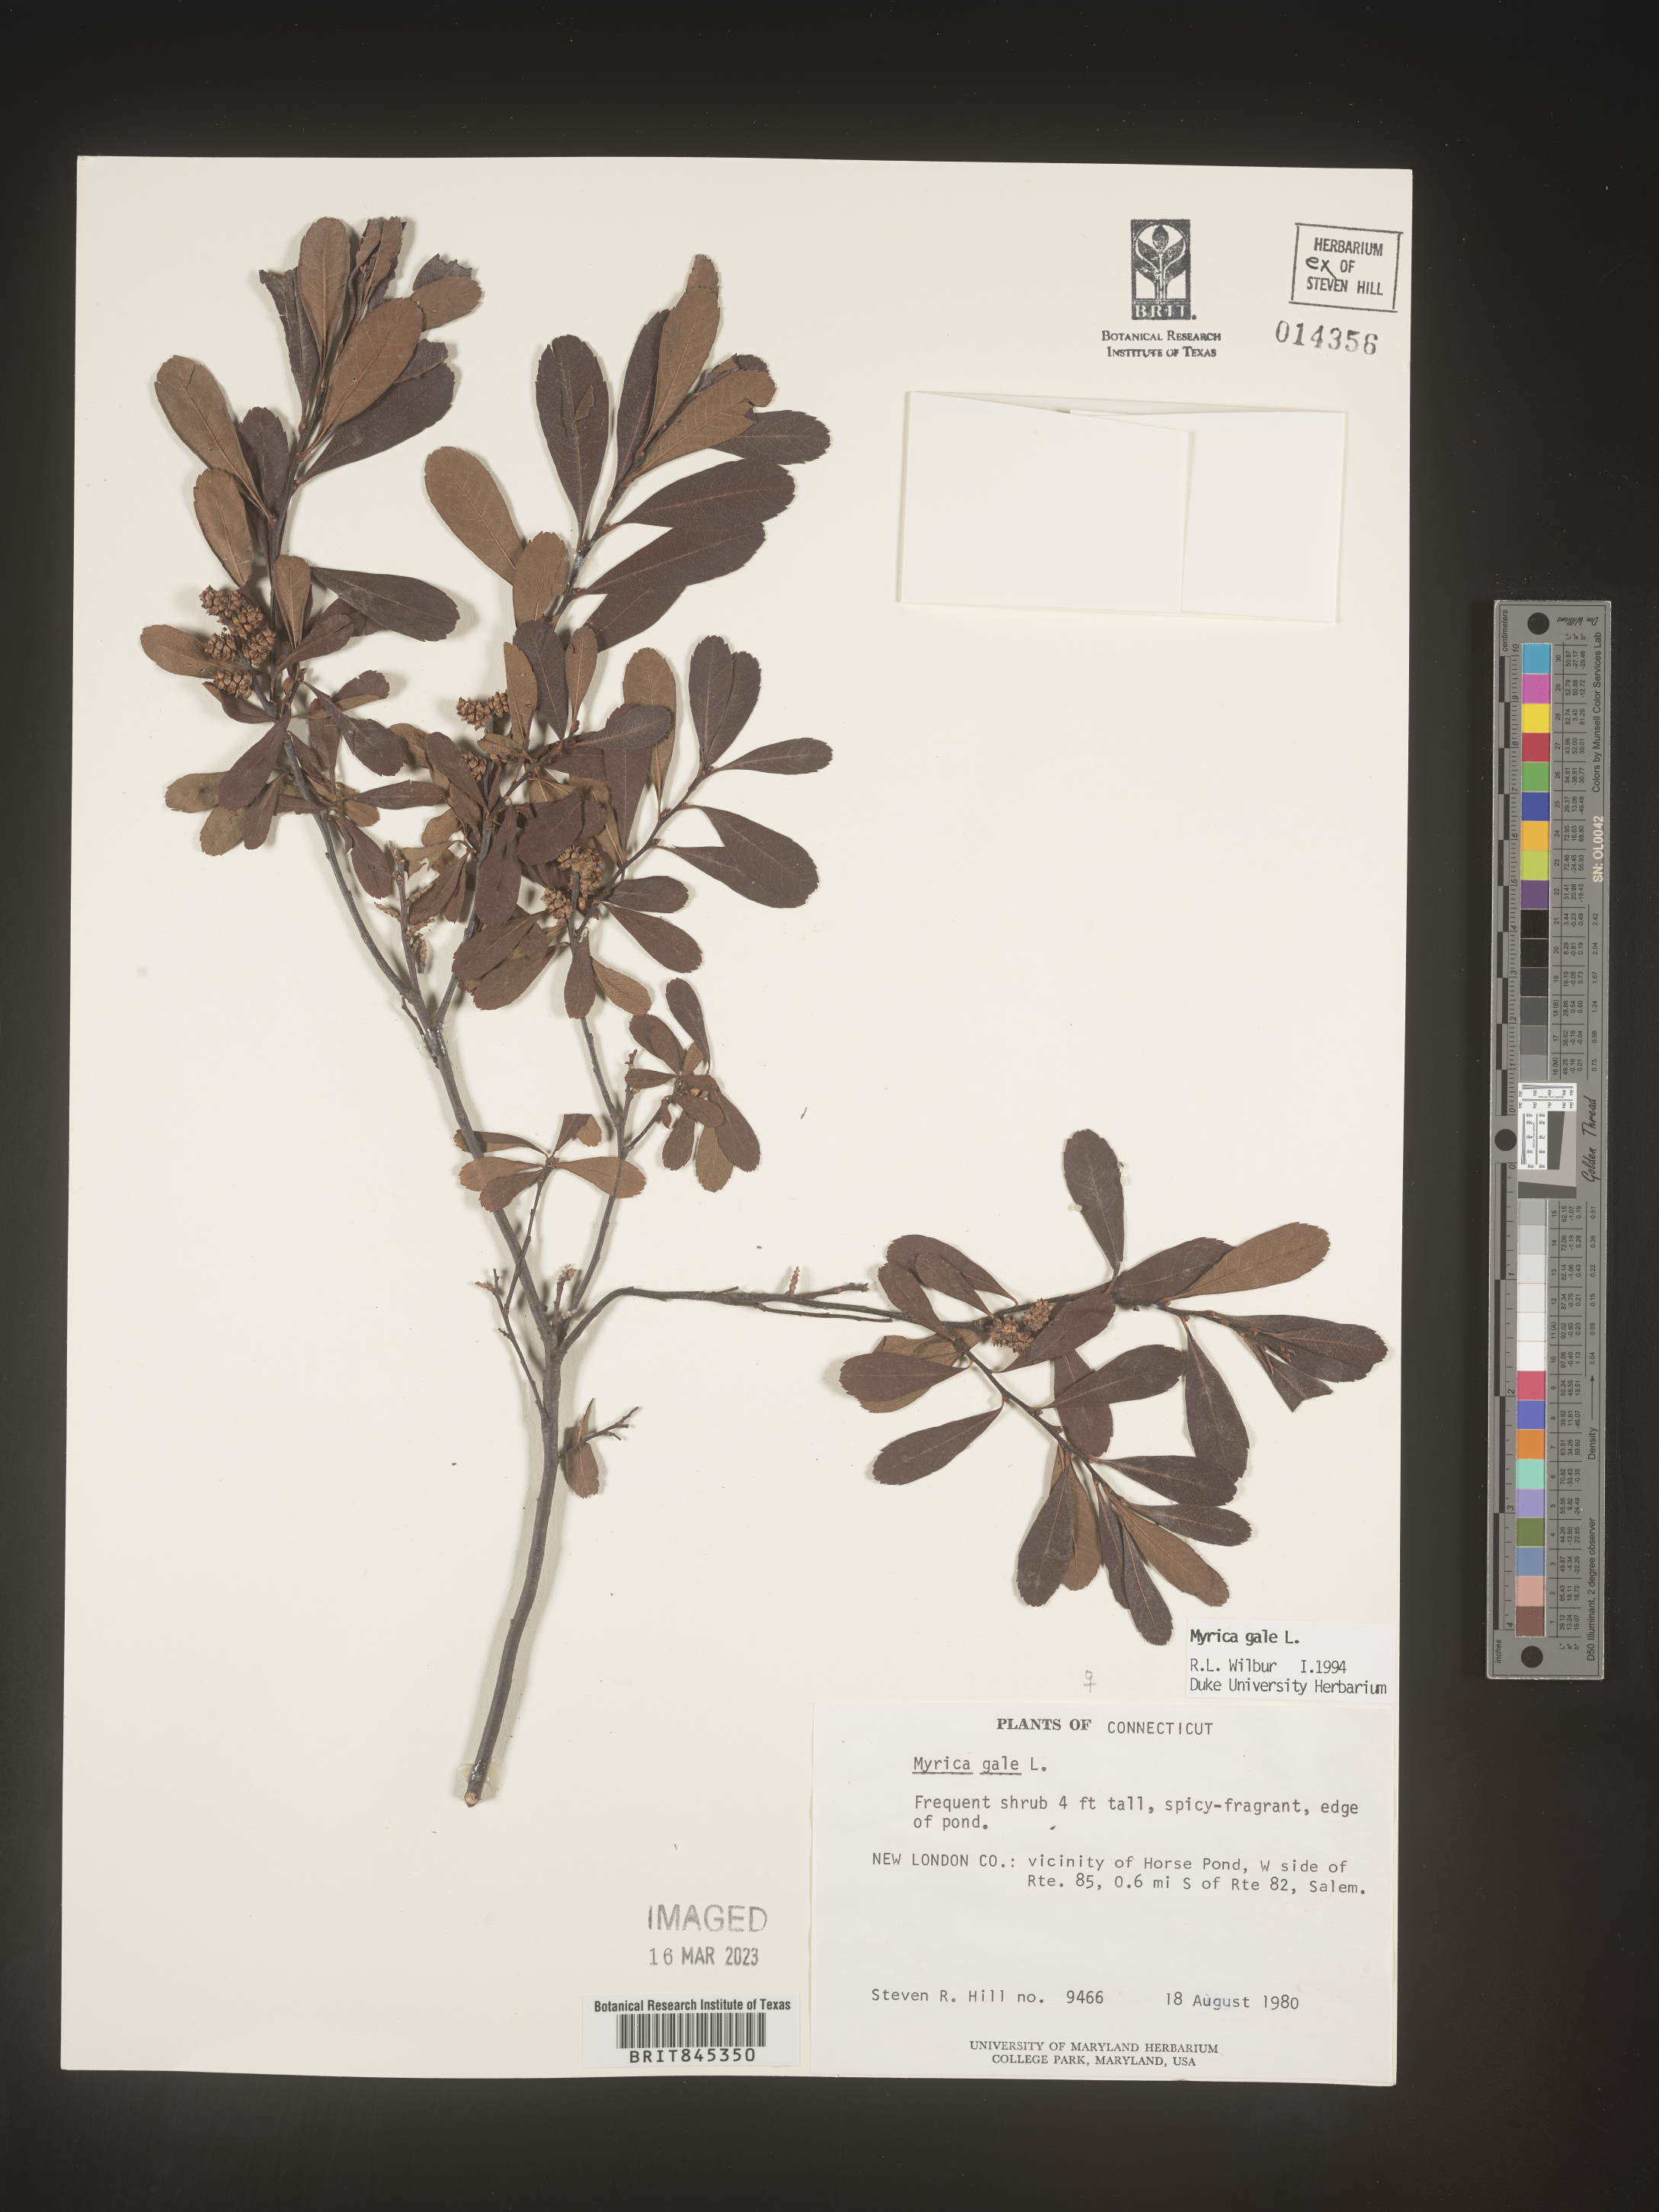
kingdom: Plantae
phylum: Tracheophyta
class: Magnoliopsida
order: Fagales
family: Myricaceae
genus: Myrica
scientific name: Myrica gale
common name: Sweet gale
